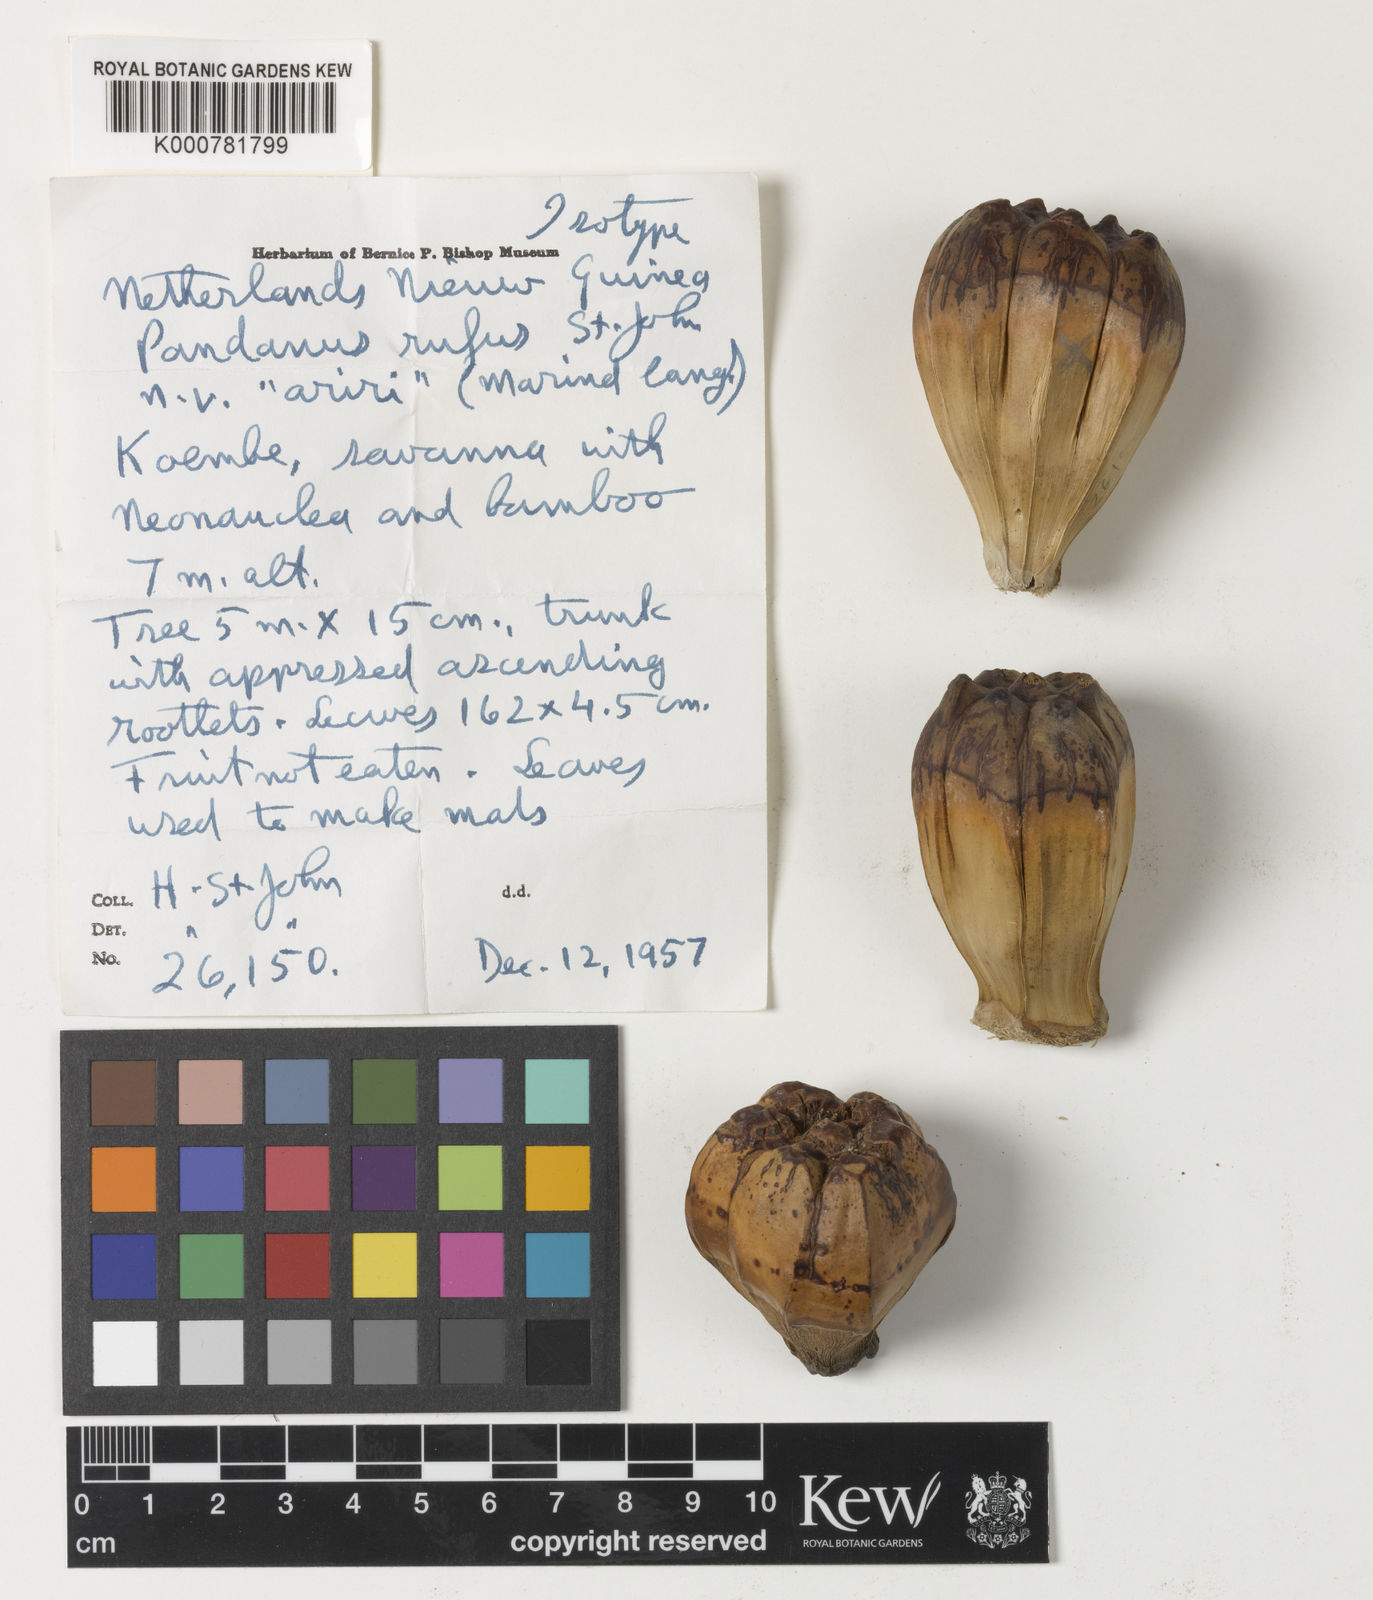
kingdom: Plantae
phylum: Tracheophyta
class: Liliopsida
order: Pandanales
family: Pandanaceae
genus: Pandanus
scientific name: Pandanus
